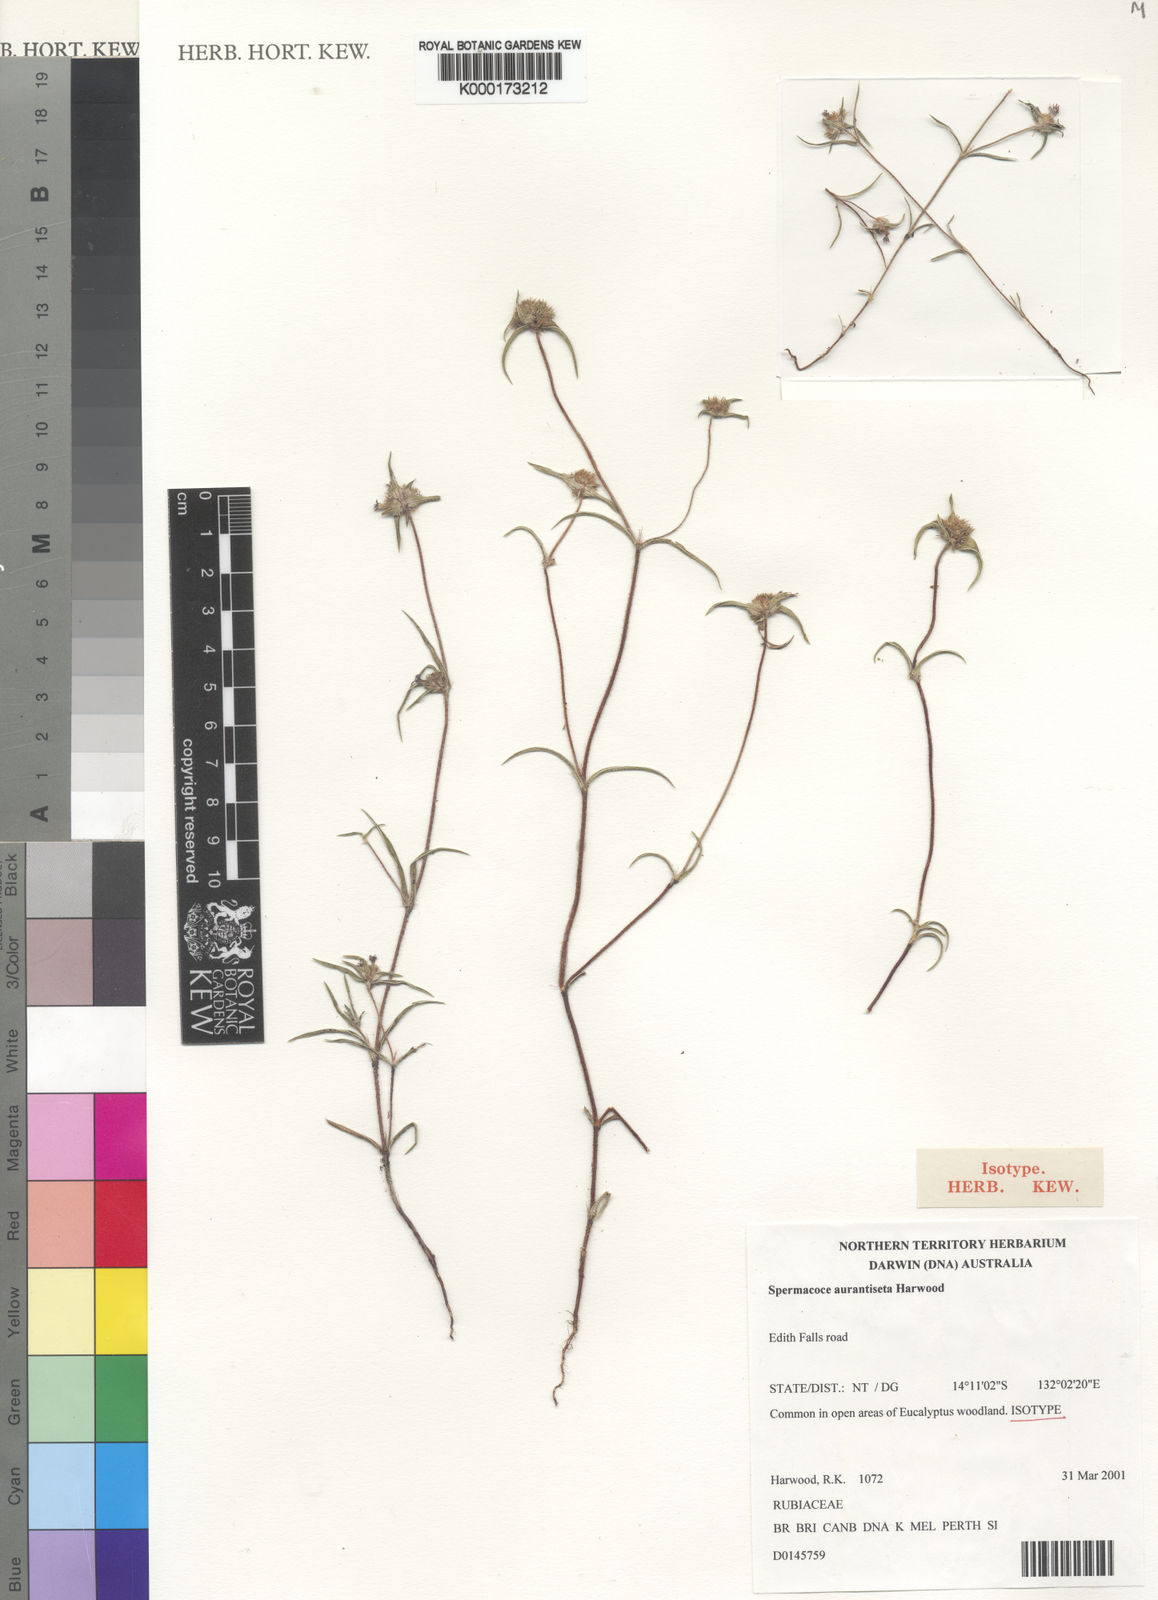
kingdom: Plantae
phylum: Tracheophyta
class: Magnoliopsida
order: Gentianales
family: Rubiaceae
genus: Spermacoce
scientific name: Spermacoce aurantiiseta
